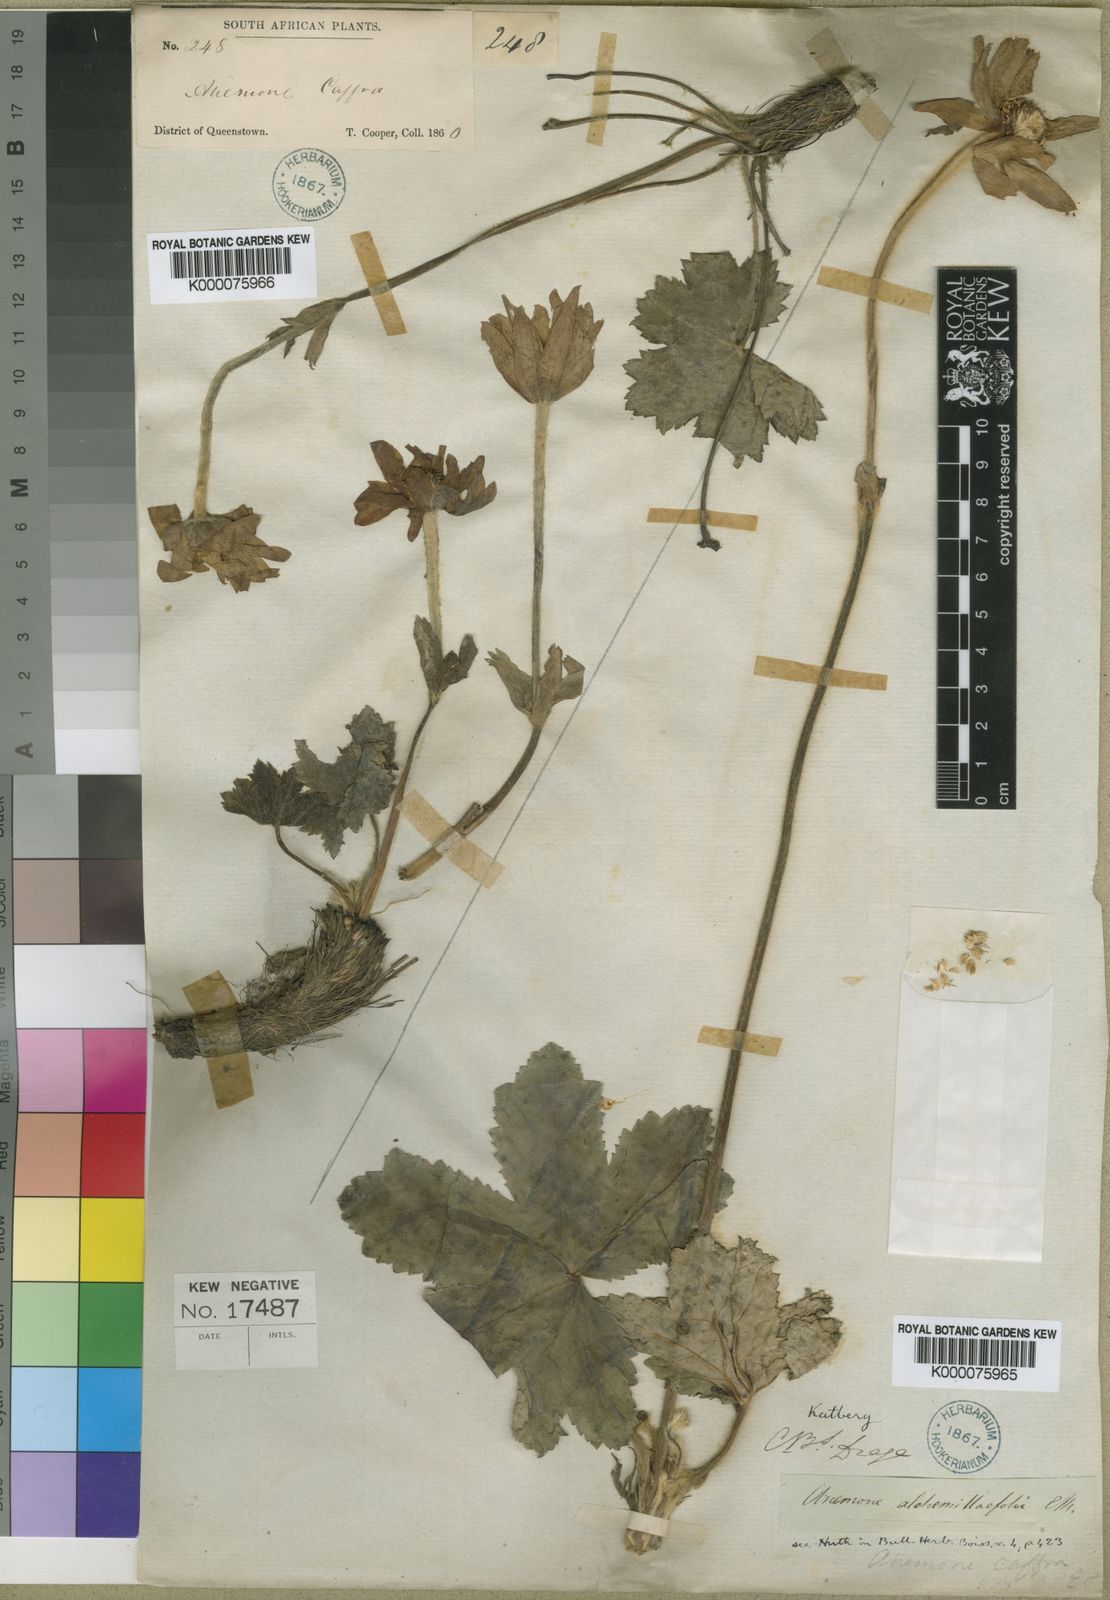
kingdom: Plantae
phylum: Tracheophyta
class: Magnoliopsida
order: Ranunculales
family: Ranunculaceae
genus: Knowltonia
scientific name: Knowltonia caffra
